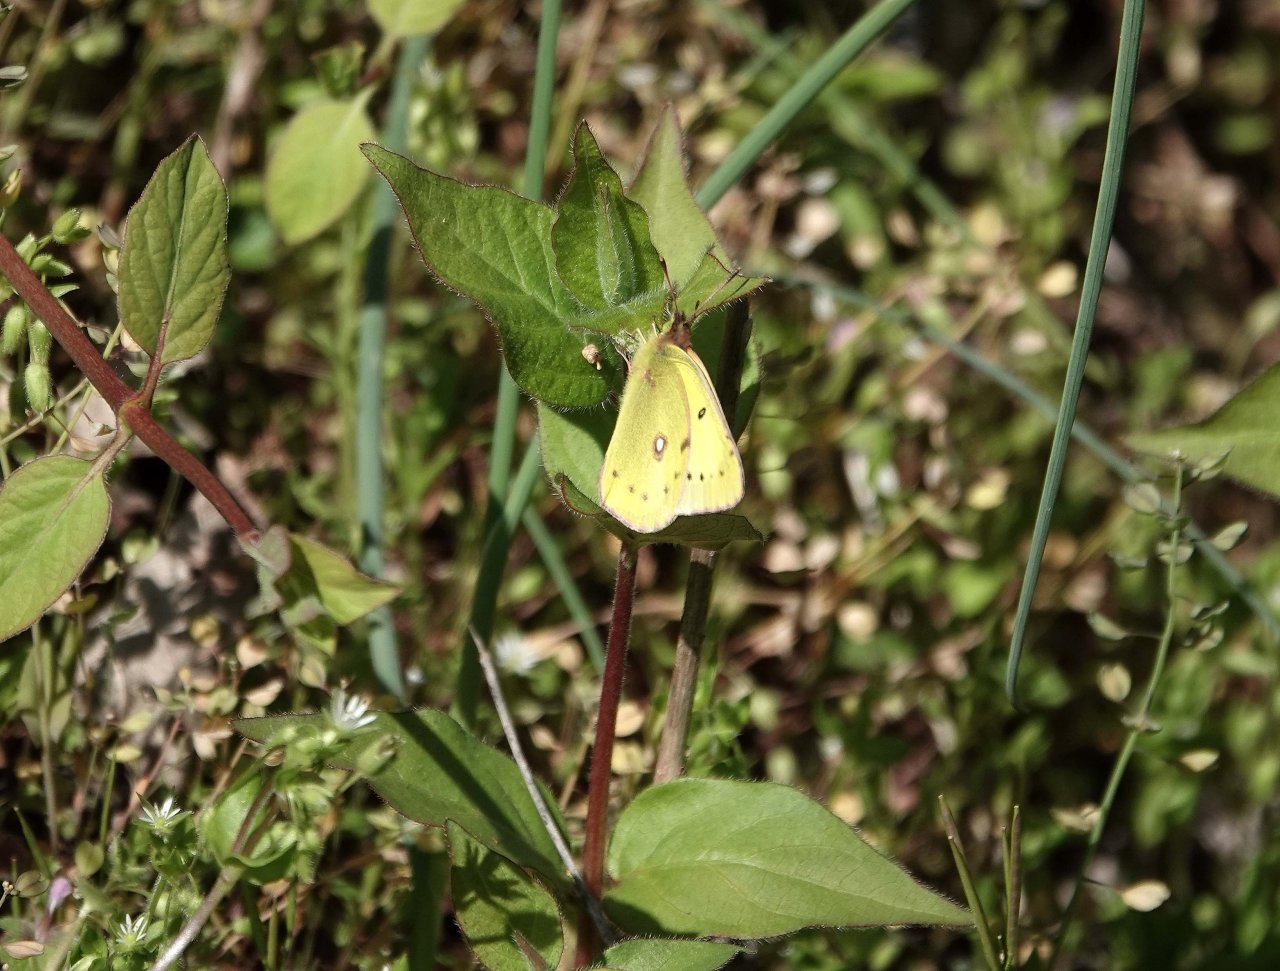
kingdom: Animalia
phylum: Arthropoda
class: Insecta
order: Lepidoptera
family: Pieridae
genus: Colias
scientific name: Colias eurytheme
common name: Orange Sulphur
